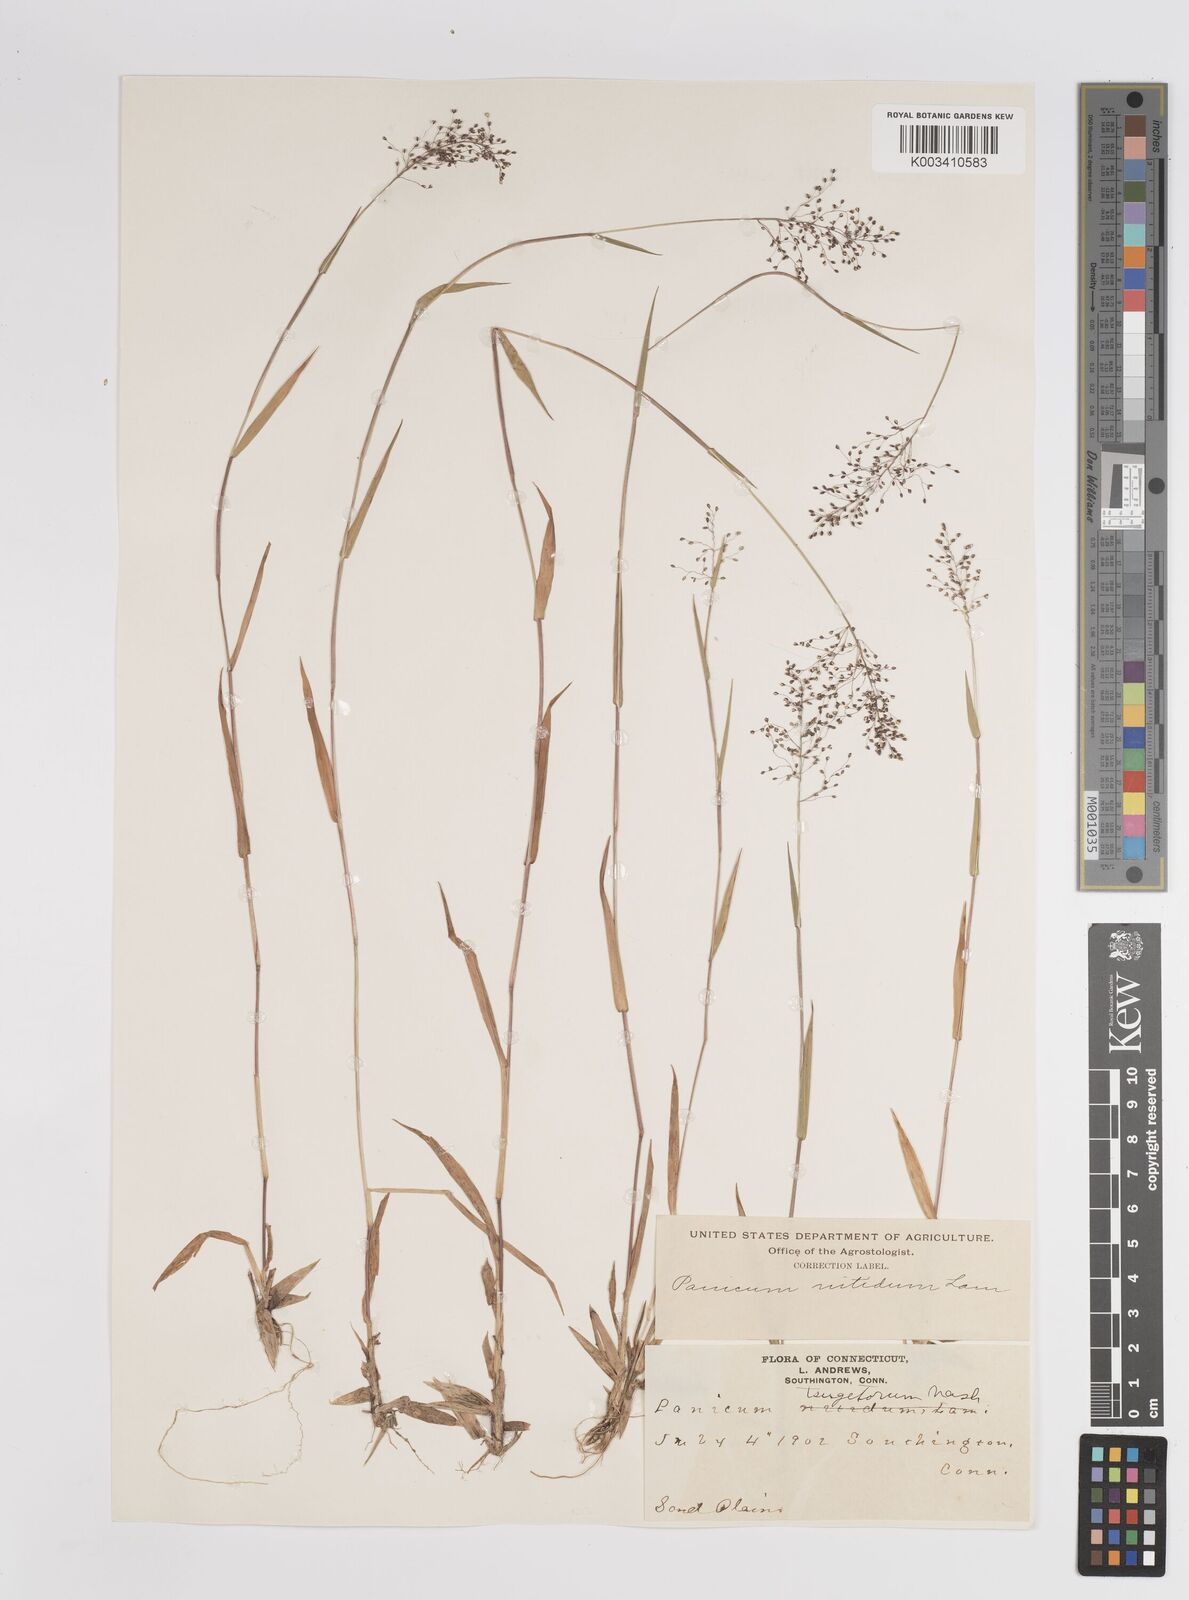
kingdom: Plantae
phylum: Tracheophyta
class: Liliopsida
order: Poales
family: Poaceae
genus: Dichanthelium
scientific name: Dichanthelium mattamuskeetense
